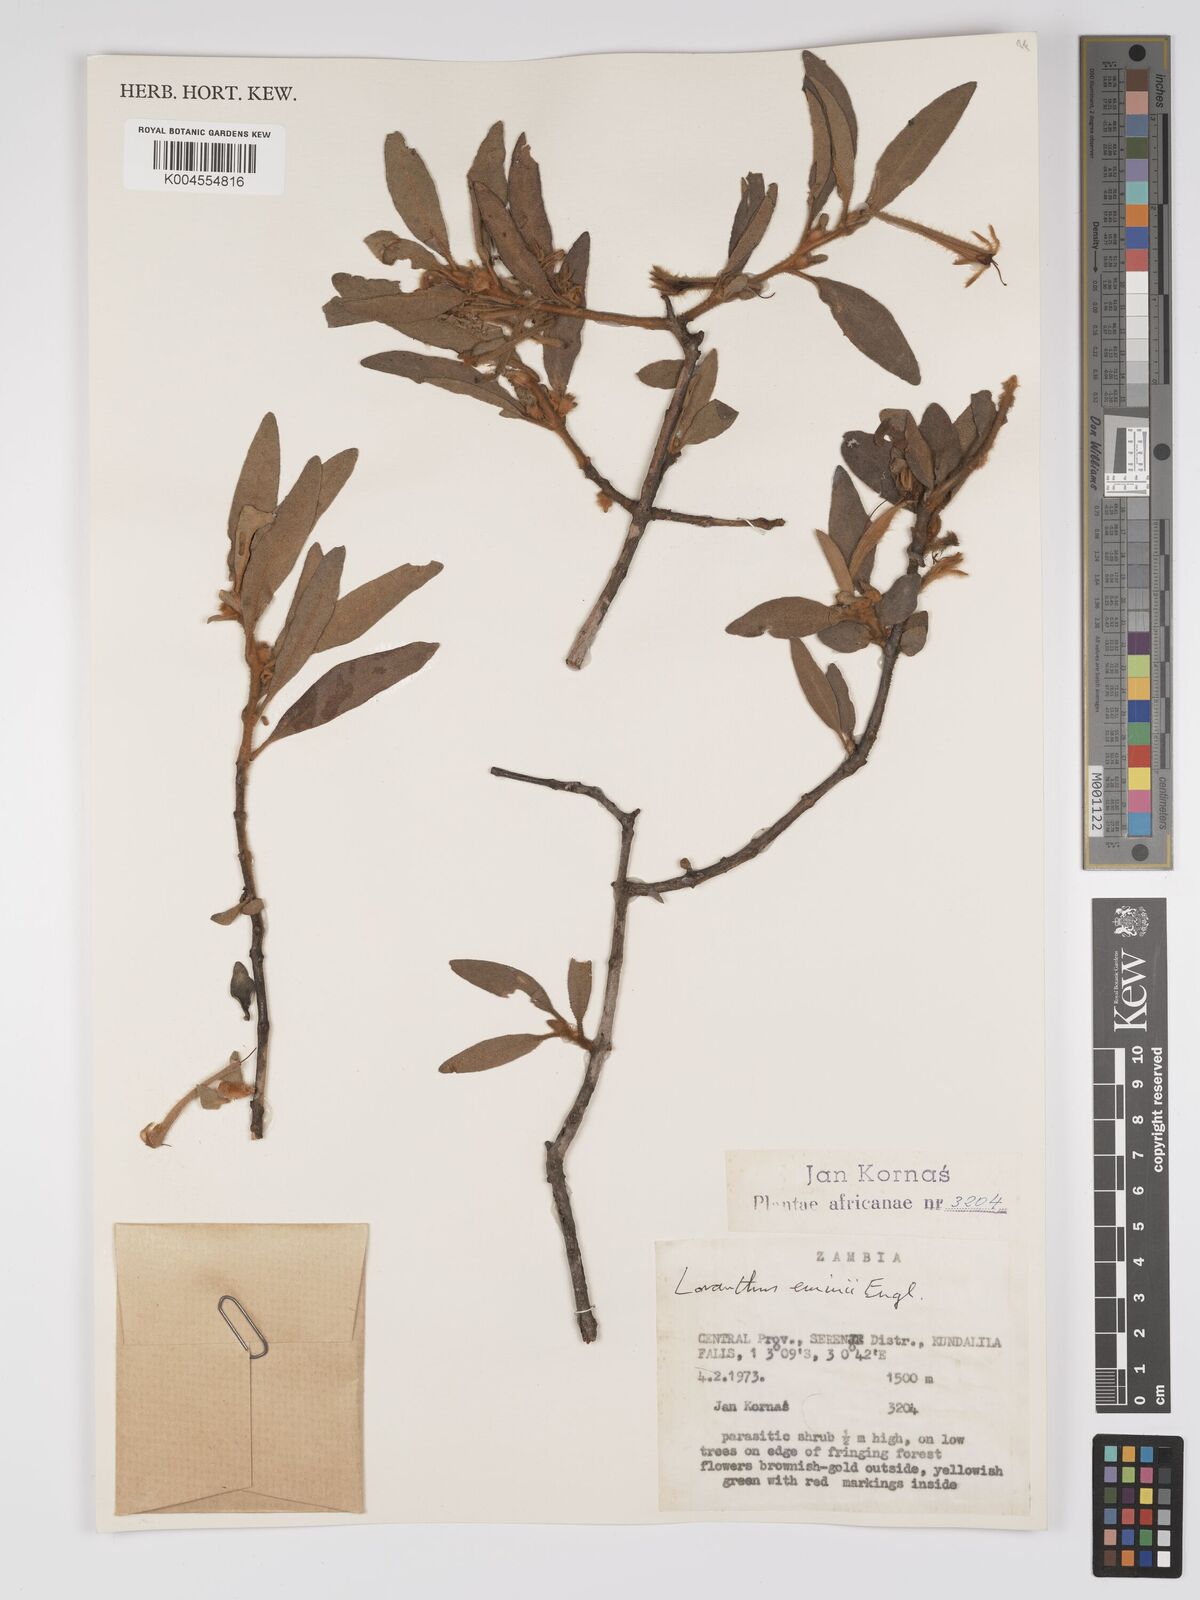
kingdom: Plantae
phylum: Tracheophyta
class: Magnoliopsida
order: Santalales
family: Loranthaceae
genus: Phragmanthera
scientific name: Phragmanthera proteicola
